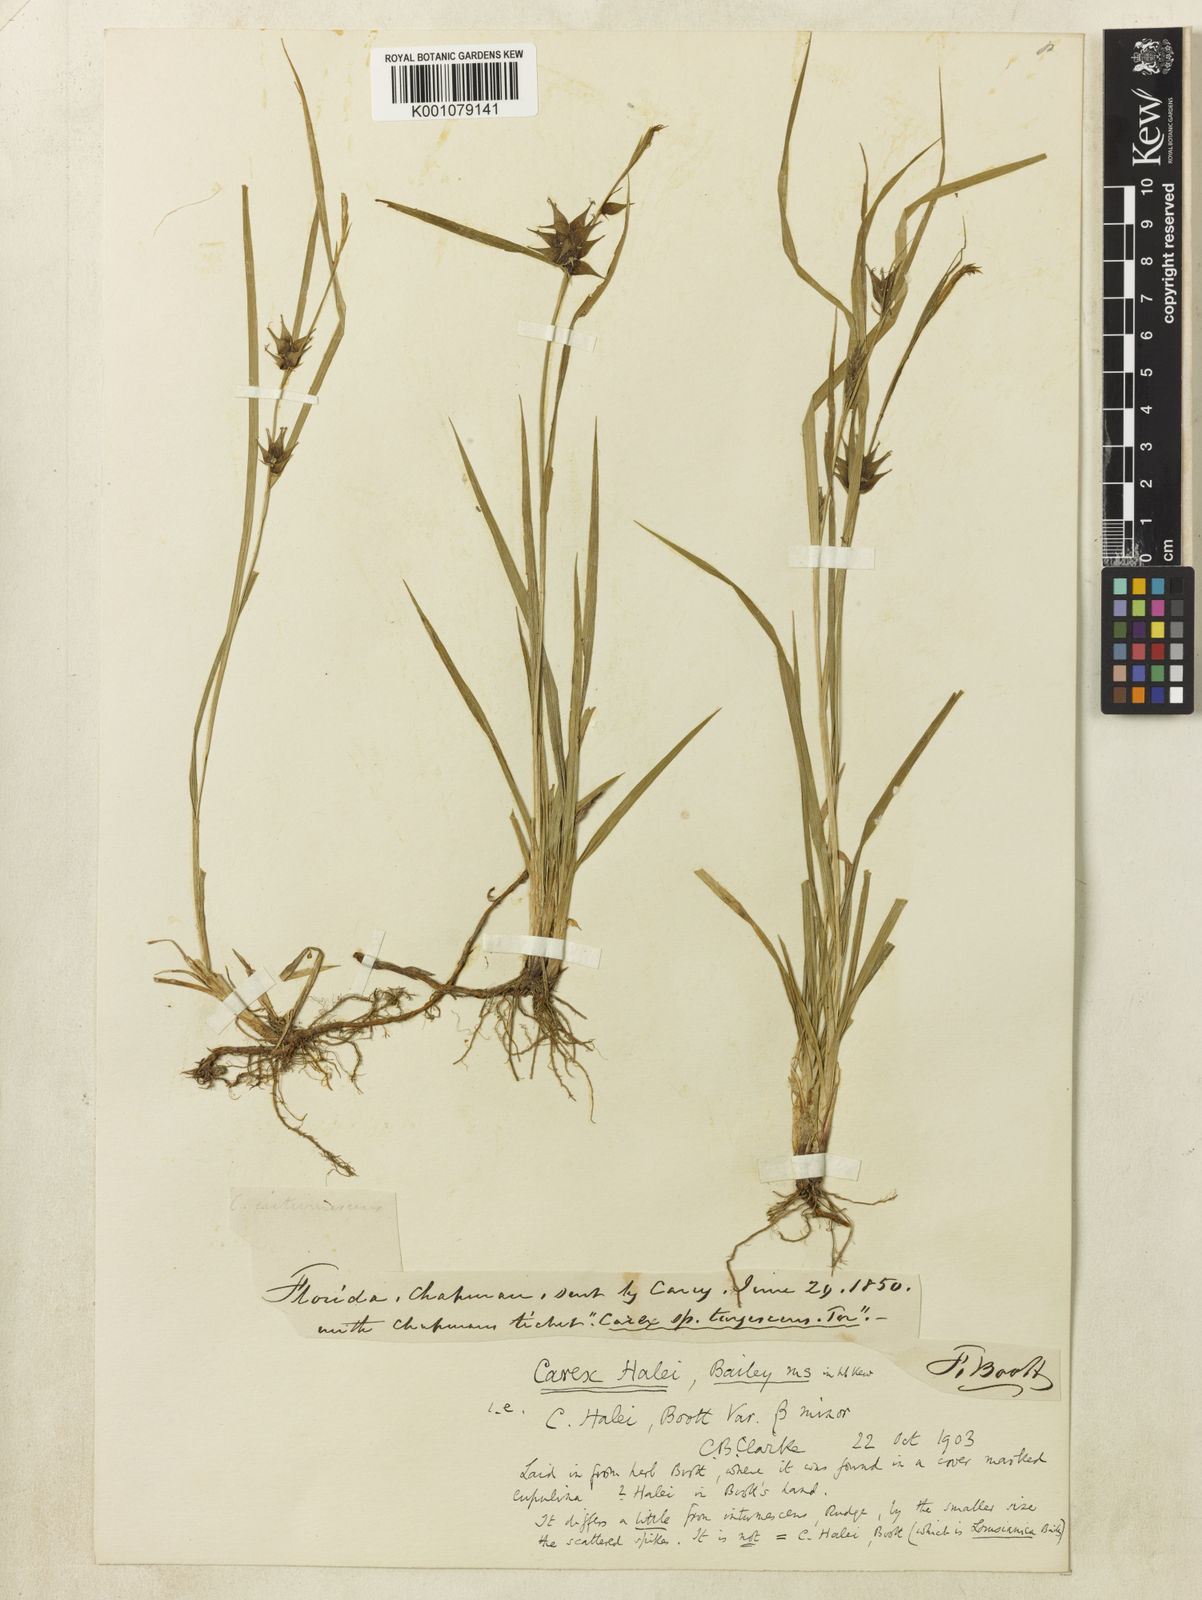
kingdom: Plantae
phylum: Tracheophyta
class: Liliopsida
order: Poales
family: Cyperaceae
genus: Carex
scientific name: Carex louisianica
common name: Louisiana sedge
